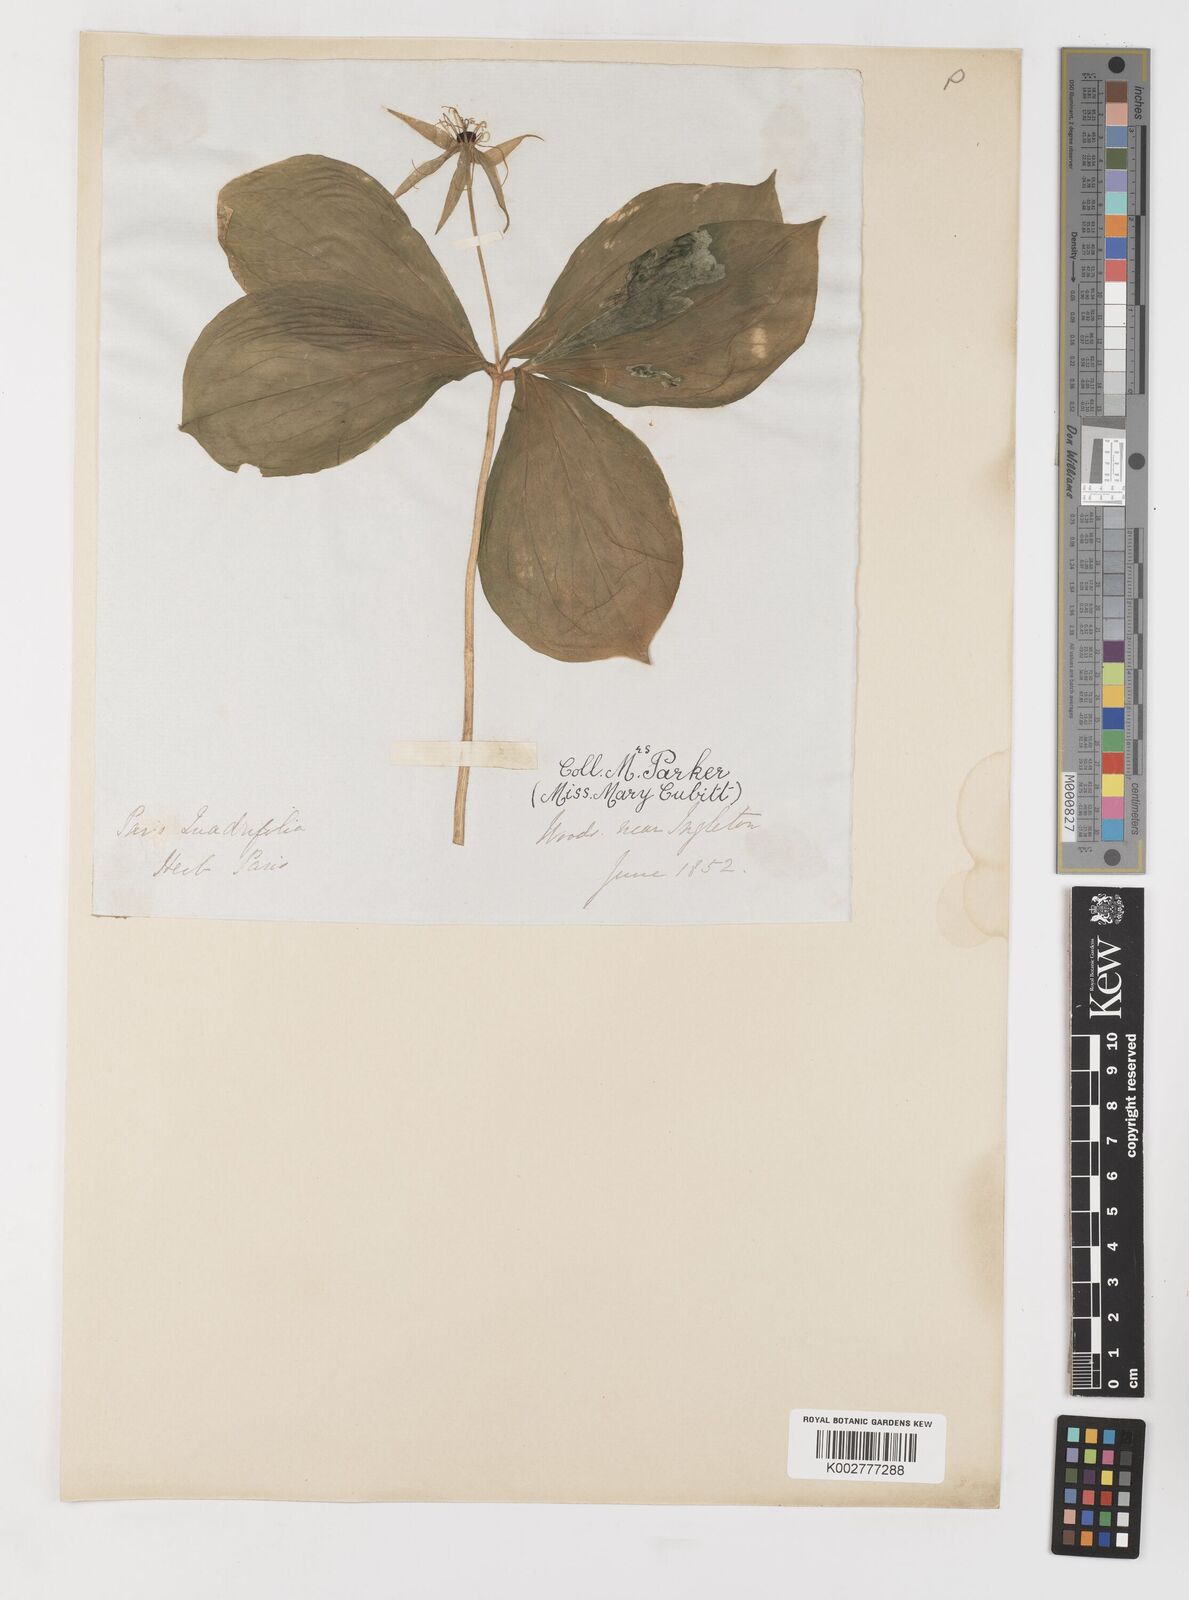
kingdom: Plantae
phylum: Tracheophyta
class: Liliopsida
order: Liliales
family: Melanthiaceae
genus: Paris
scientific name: Paris quadrifolia
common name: Herb-paris
